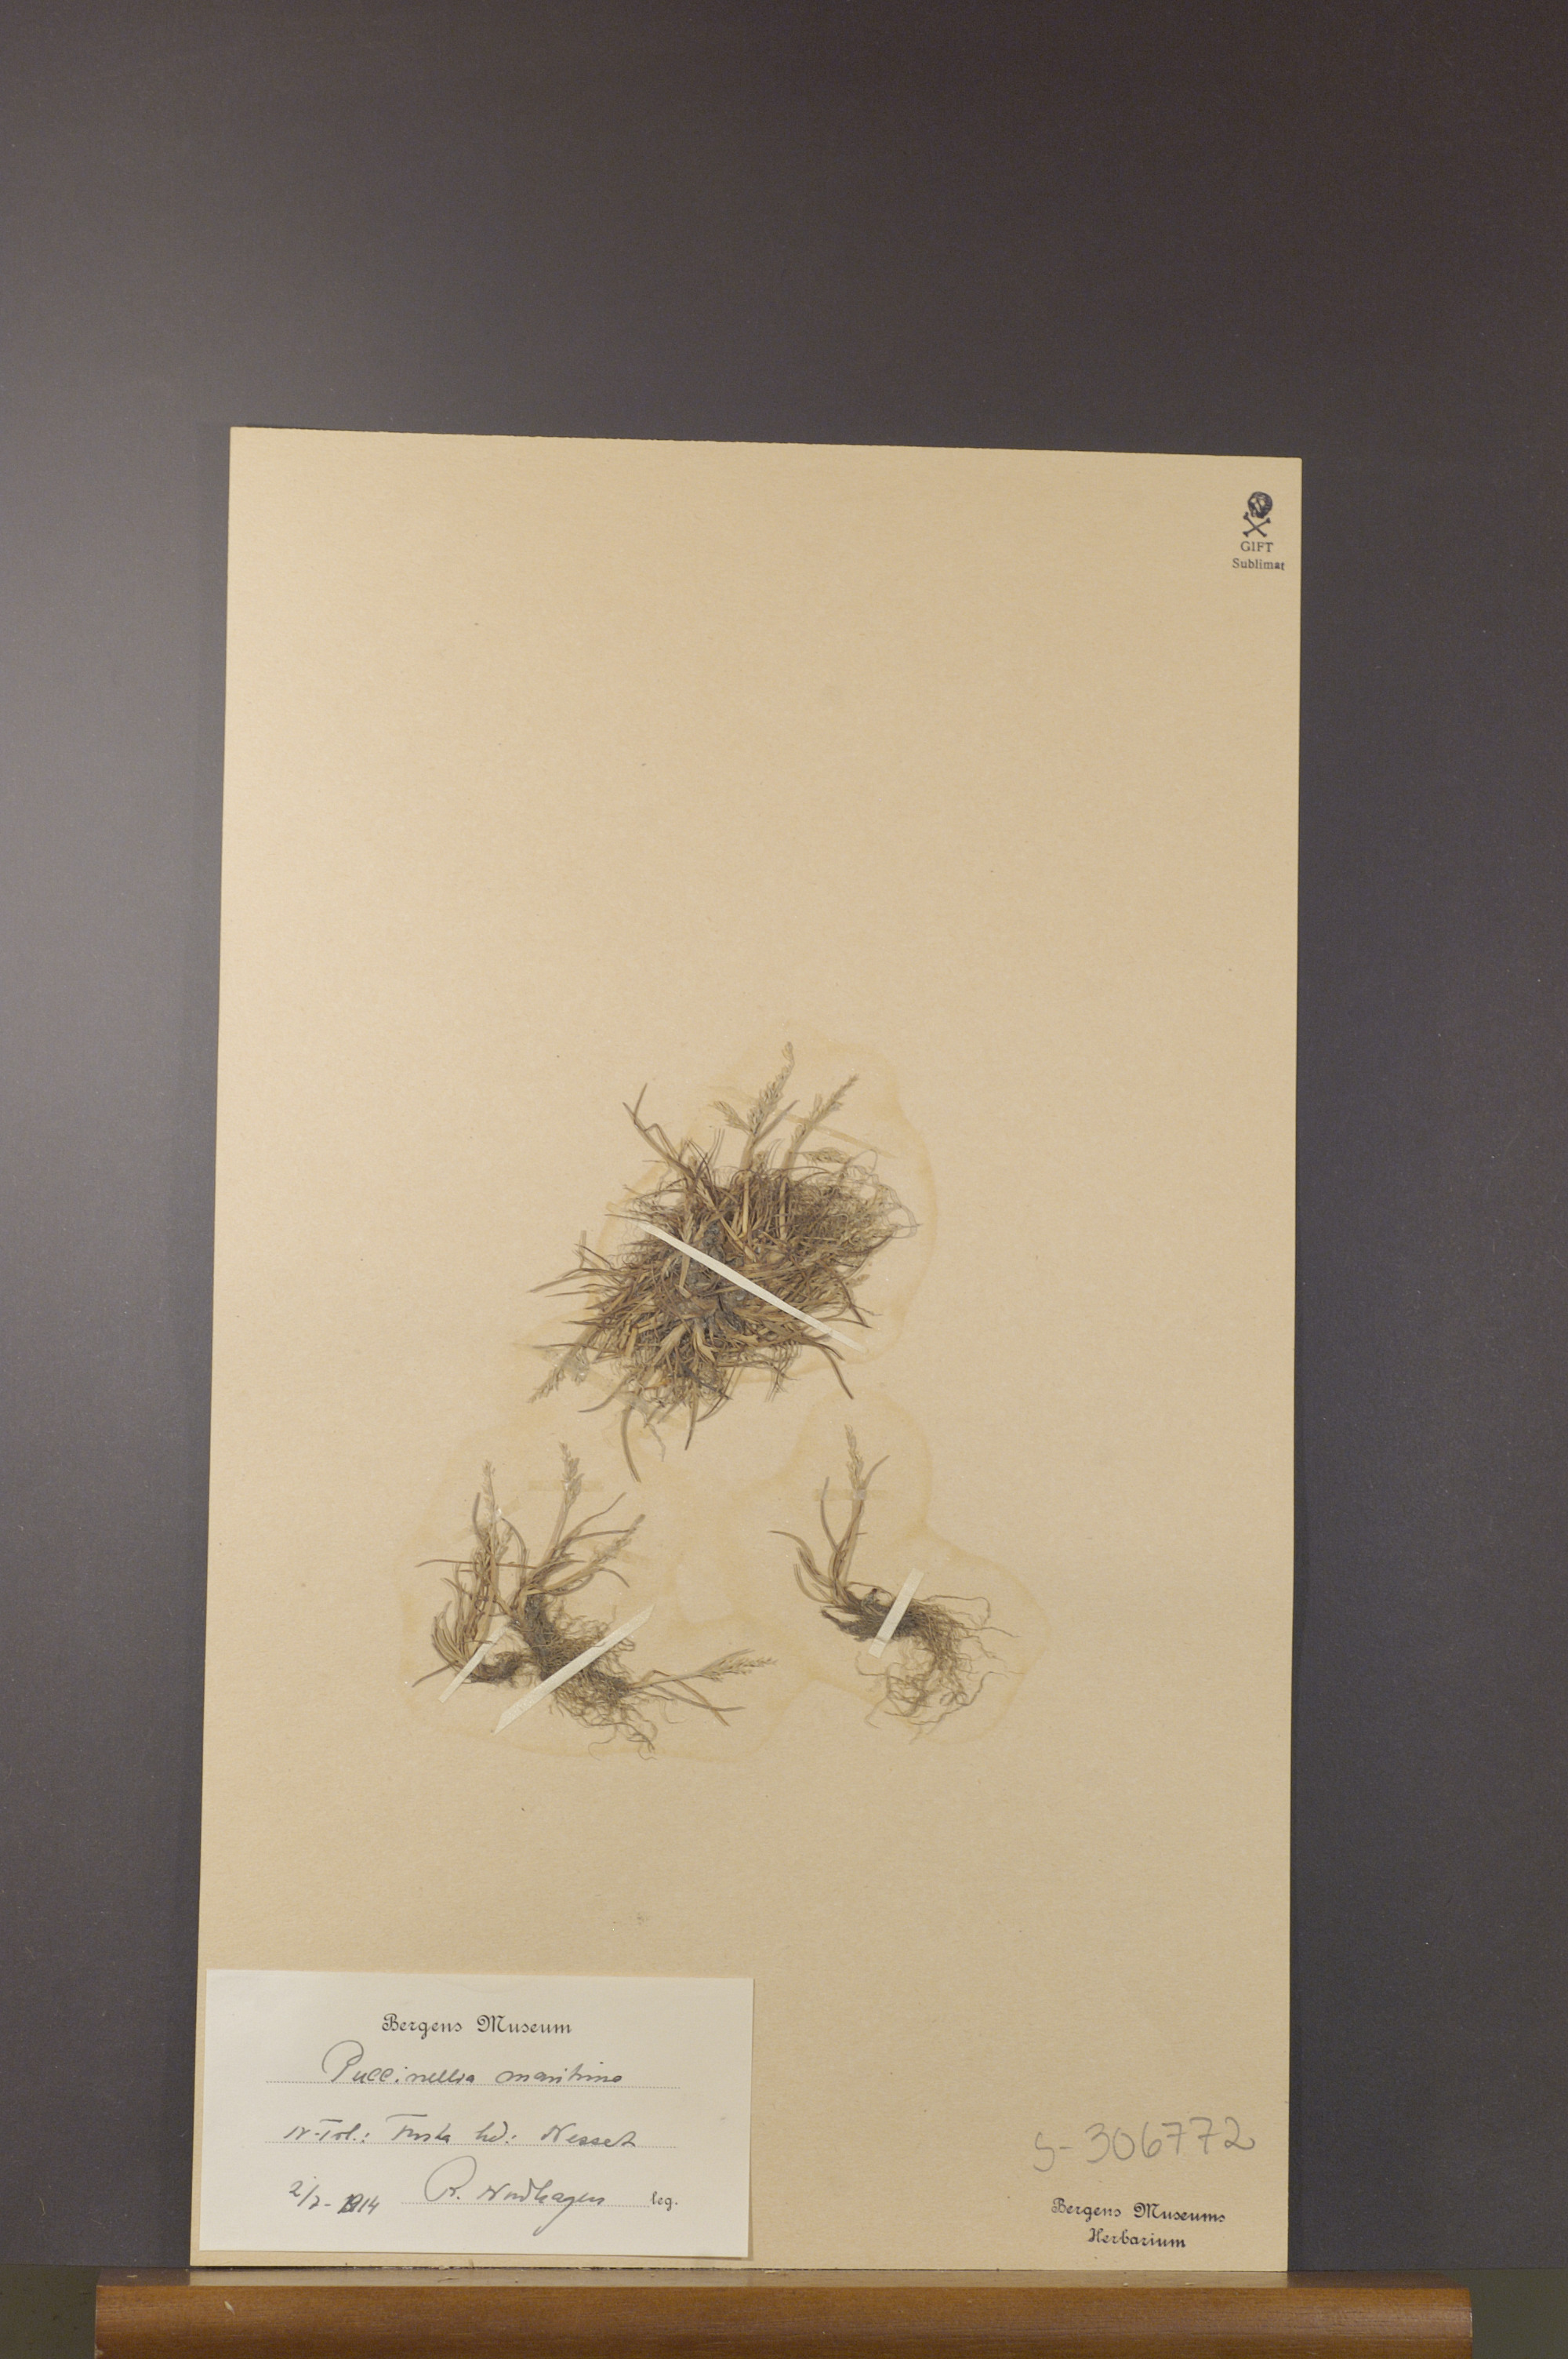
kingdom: Plantae
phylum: Tracheophyta
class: Liliopsida
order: Poales
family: Poaceae
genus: Puccinellia
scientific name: Puccinellia maritima
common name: Common saltmarsh grass
